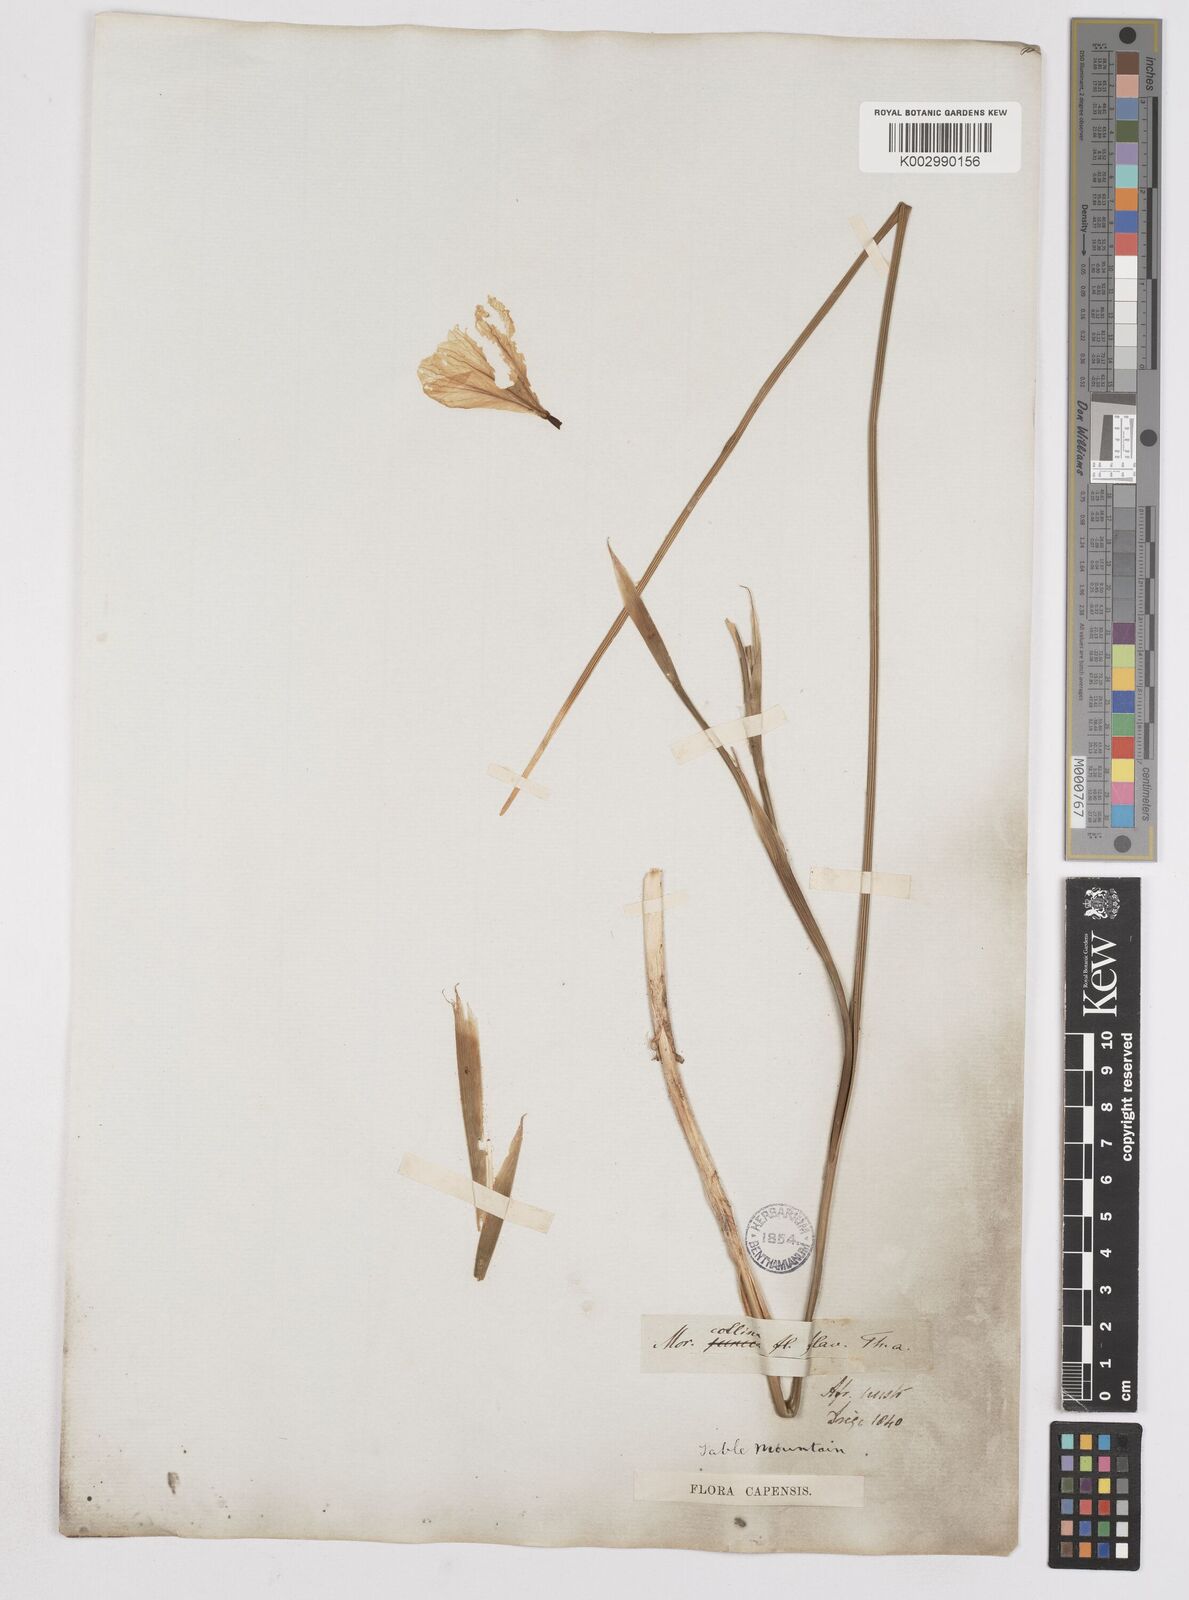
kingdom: Plantae
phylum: Tracheophyta
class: Liliopsida
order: Asparagales
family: Iridaceae
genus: Moraea
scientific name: Moraea collina
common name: Cape-tulip
